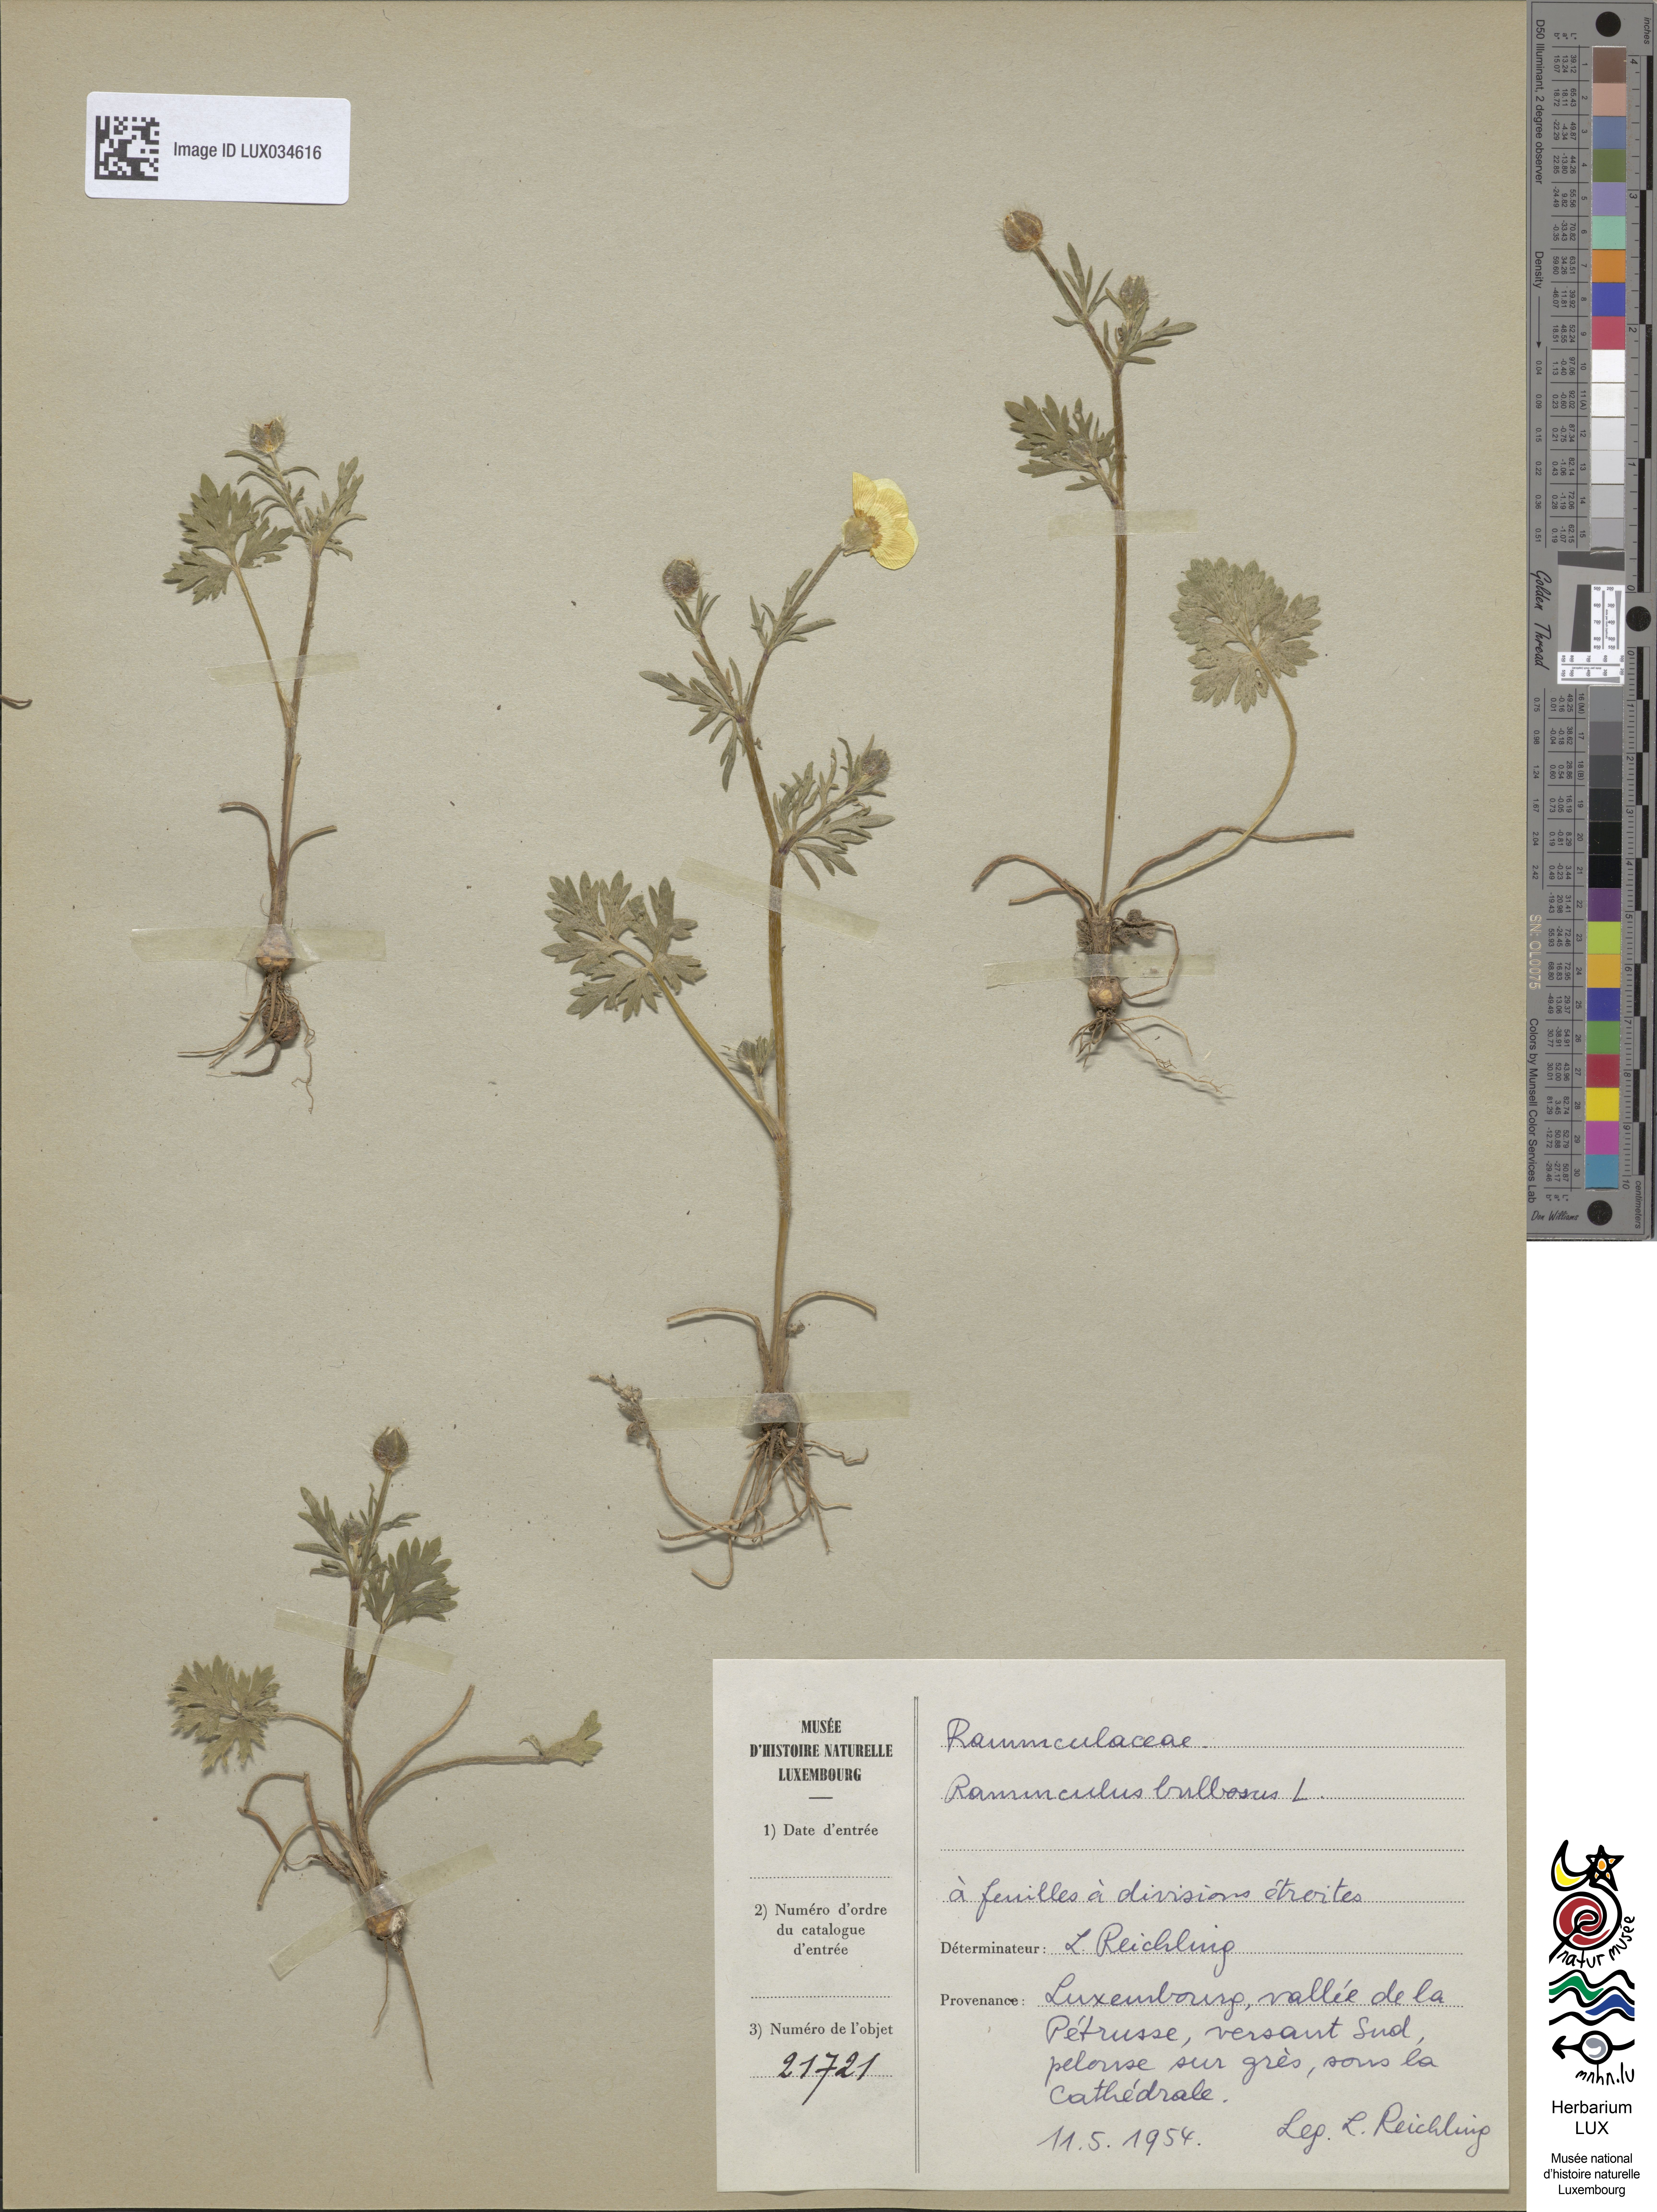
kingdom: Plantae
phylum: Tracheophyta
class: Magnoliopsida
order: Ranunculales
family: Ranunculaceae
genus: Ranunculus
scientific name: Ranunculus bulbosus
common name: Bulbous buttercup
